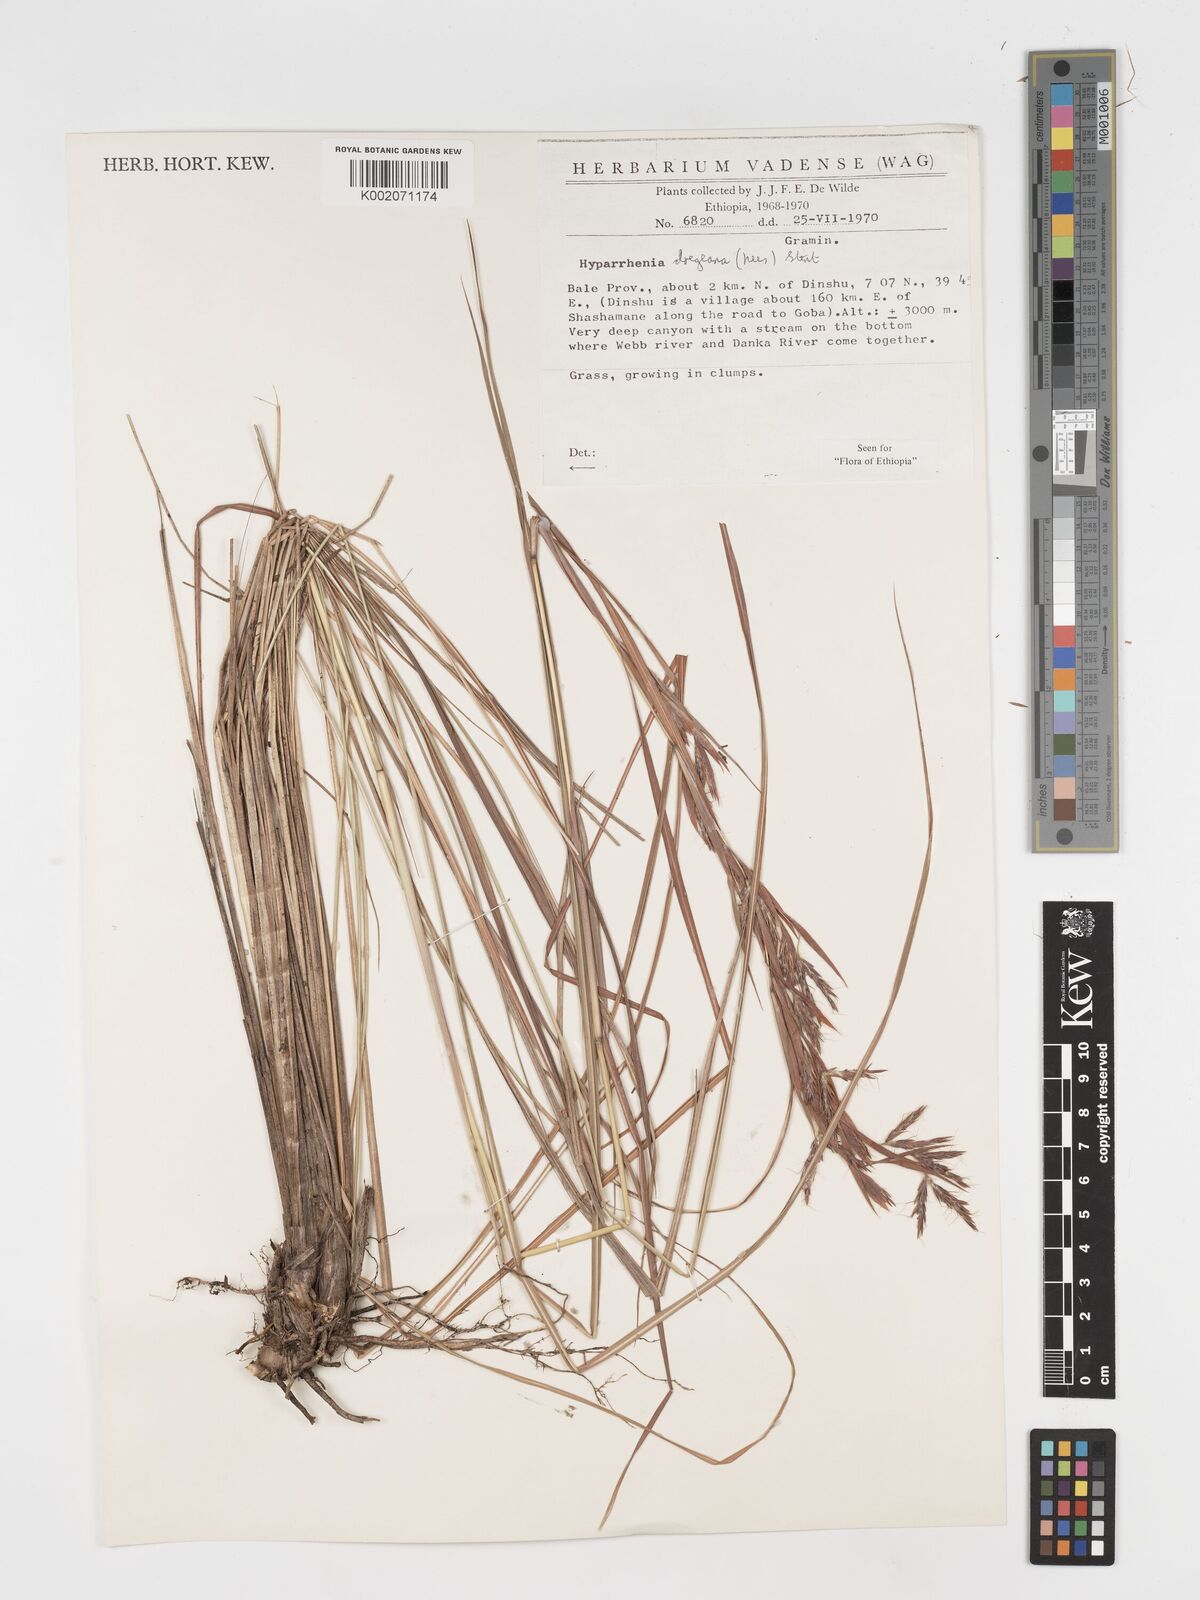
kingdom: Plantae
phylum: Tracheophyta
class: Liliopsida
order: Poales
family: Poaceae
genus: Hyparrhenia
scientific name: Hyparrhenia dregeana
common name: Silky thatching grass
